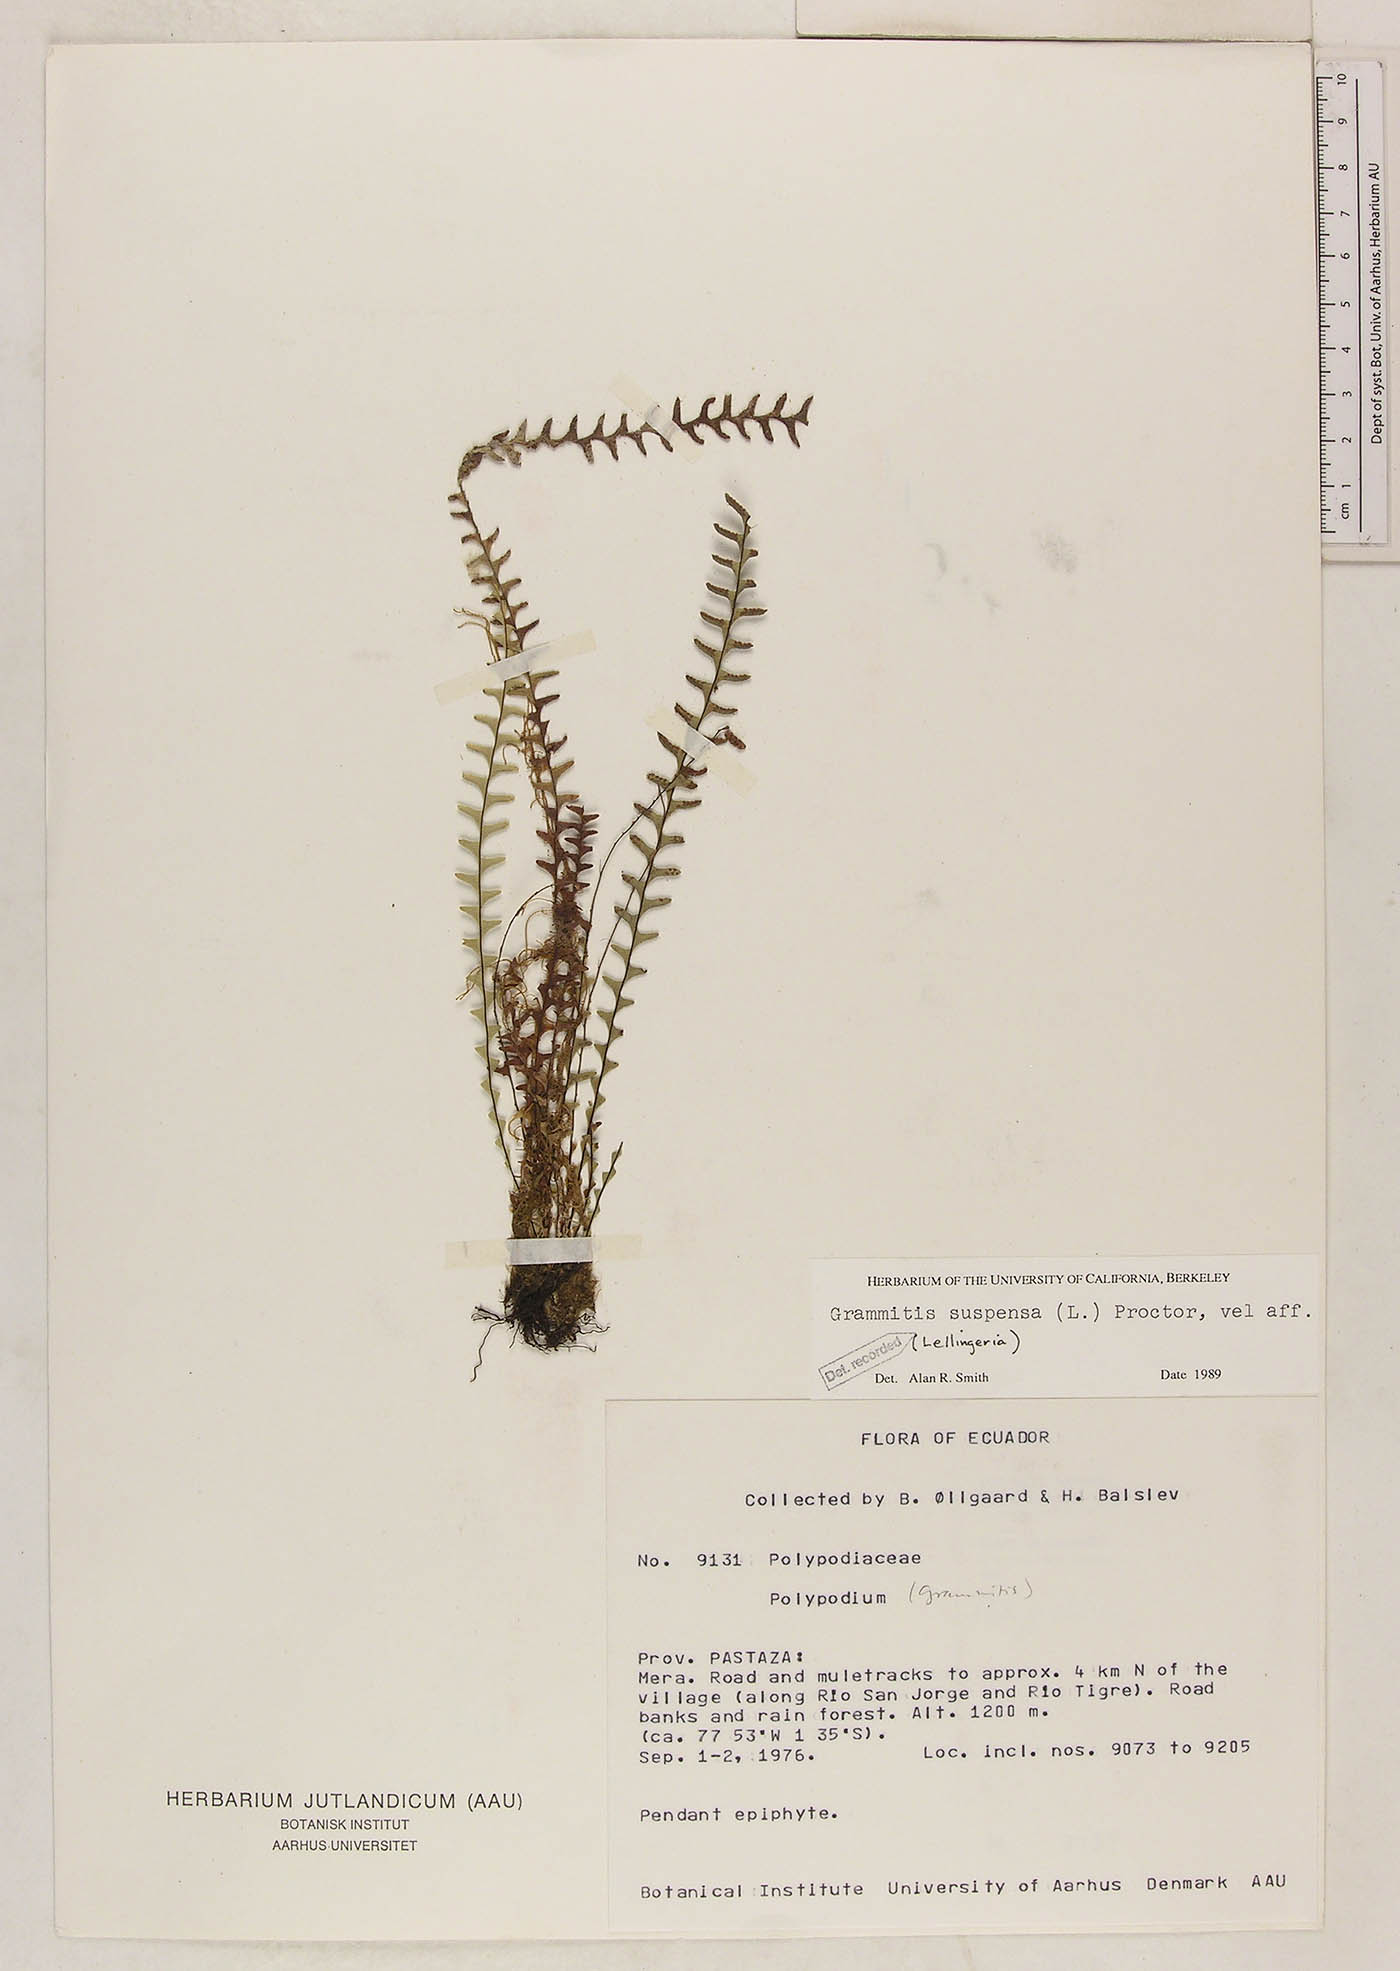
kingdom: Plantae
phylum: Tracheophyta
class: Polypodiopsida
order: Polypodiales
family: Polypodiaceae
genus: Lellingeria
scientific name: Lellingeria suspensa
